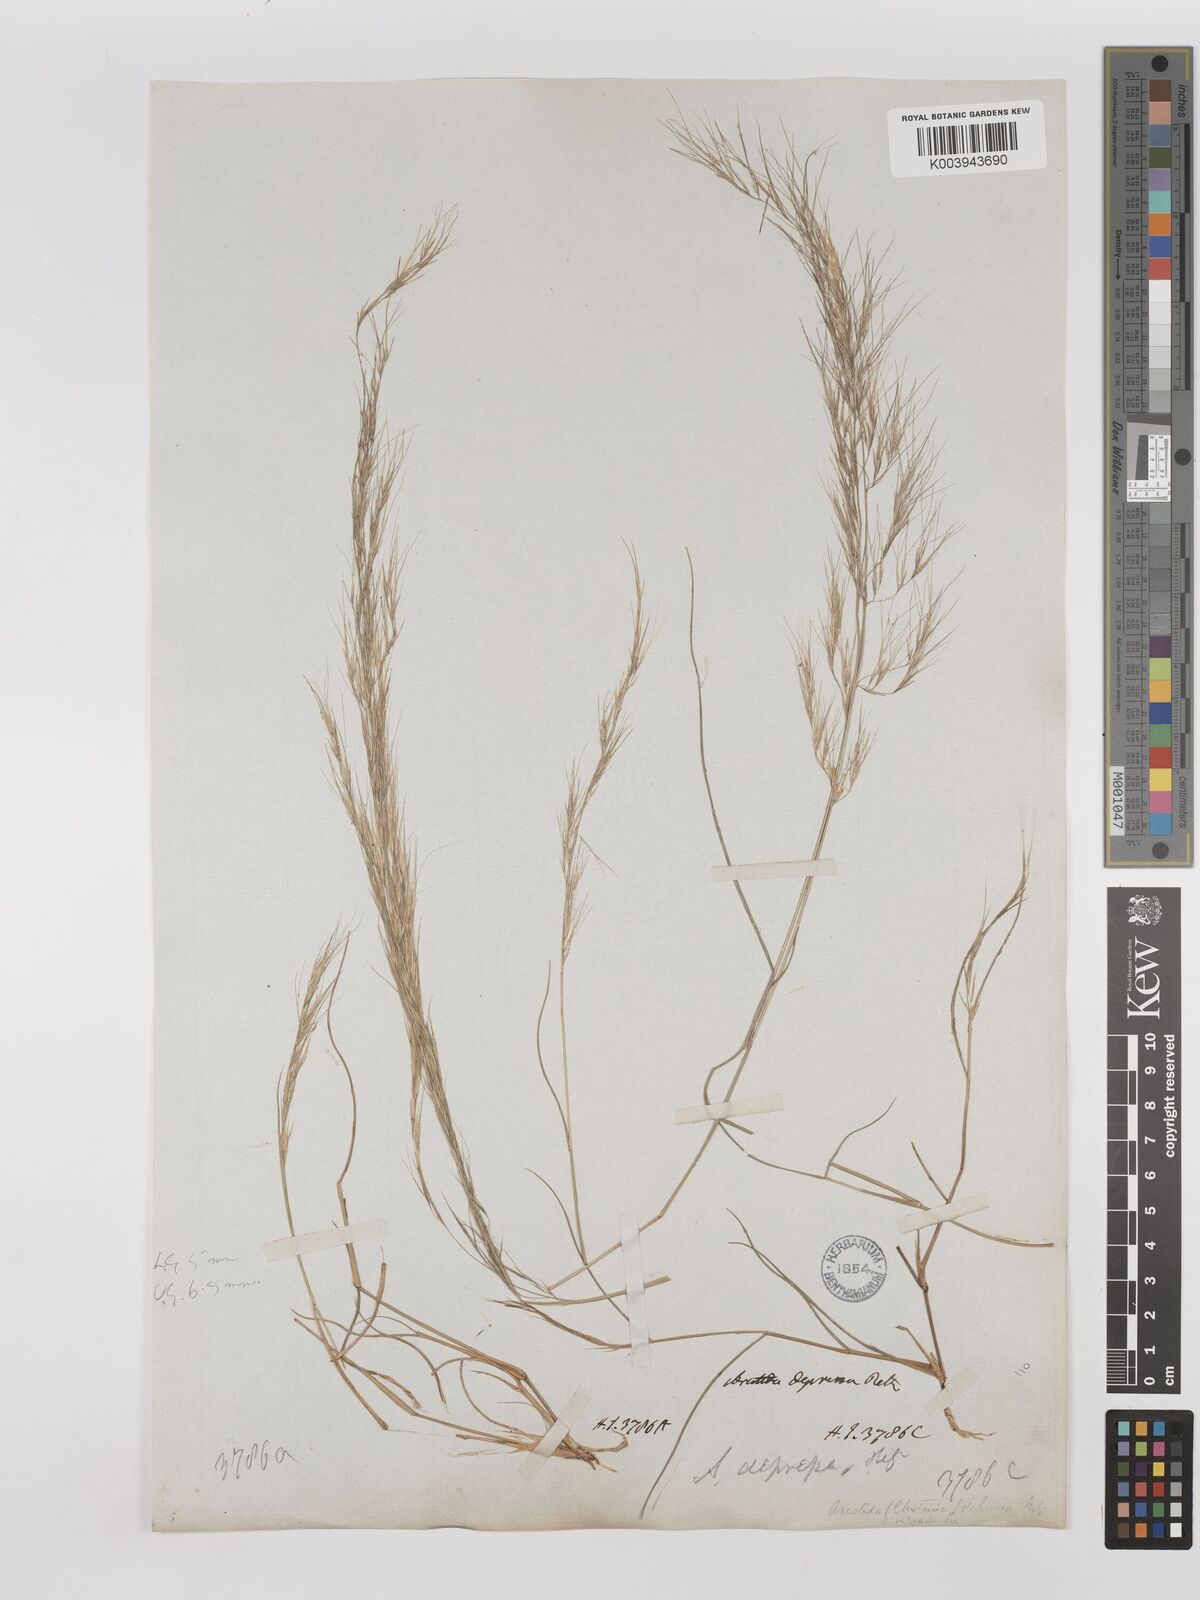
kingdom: Plantae
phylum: Tracheophyta
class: Liliopsida
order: Poales
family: Poaceae
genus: Aristida
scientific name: Aristida adscensionis
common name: Sixweeks threeawn
